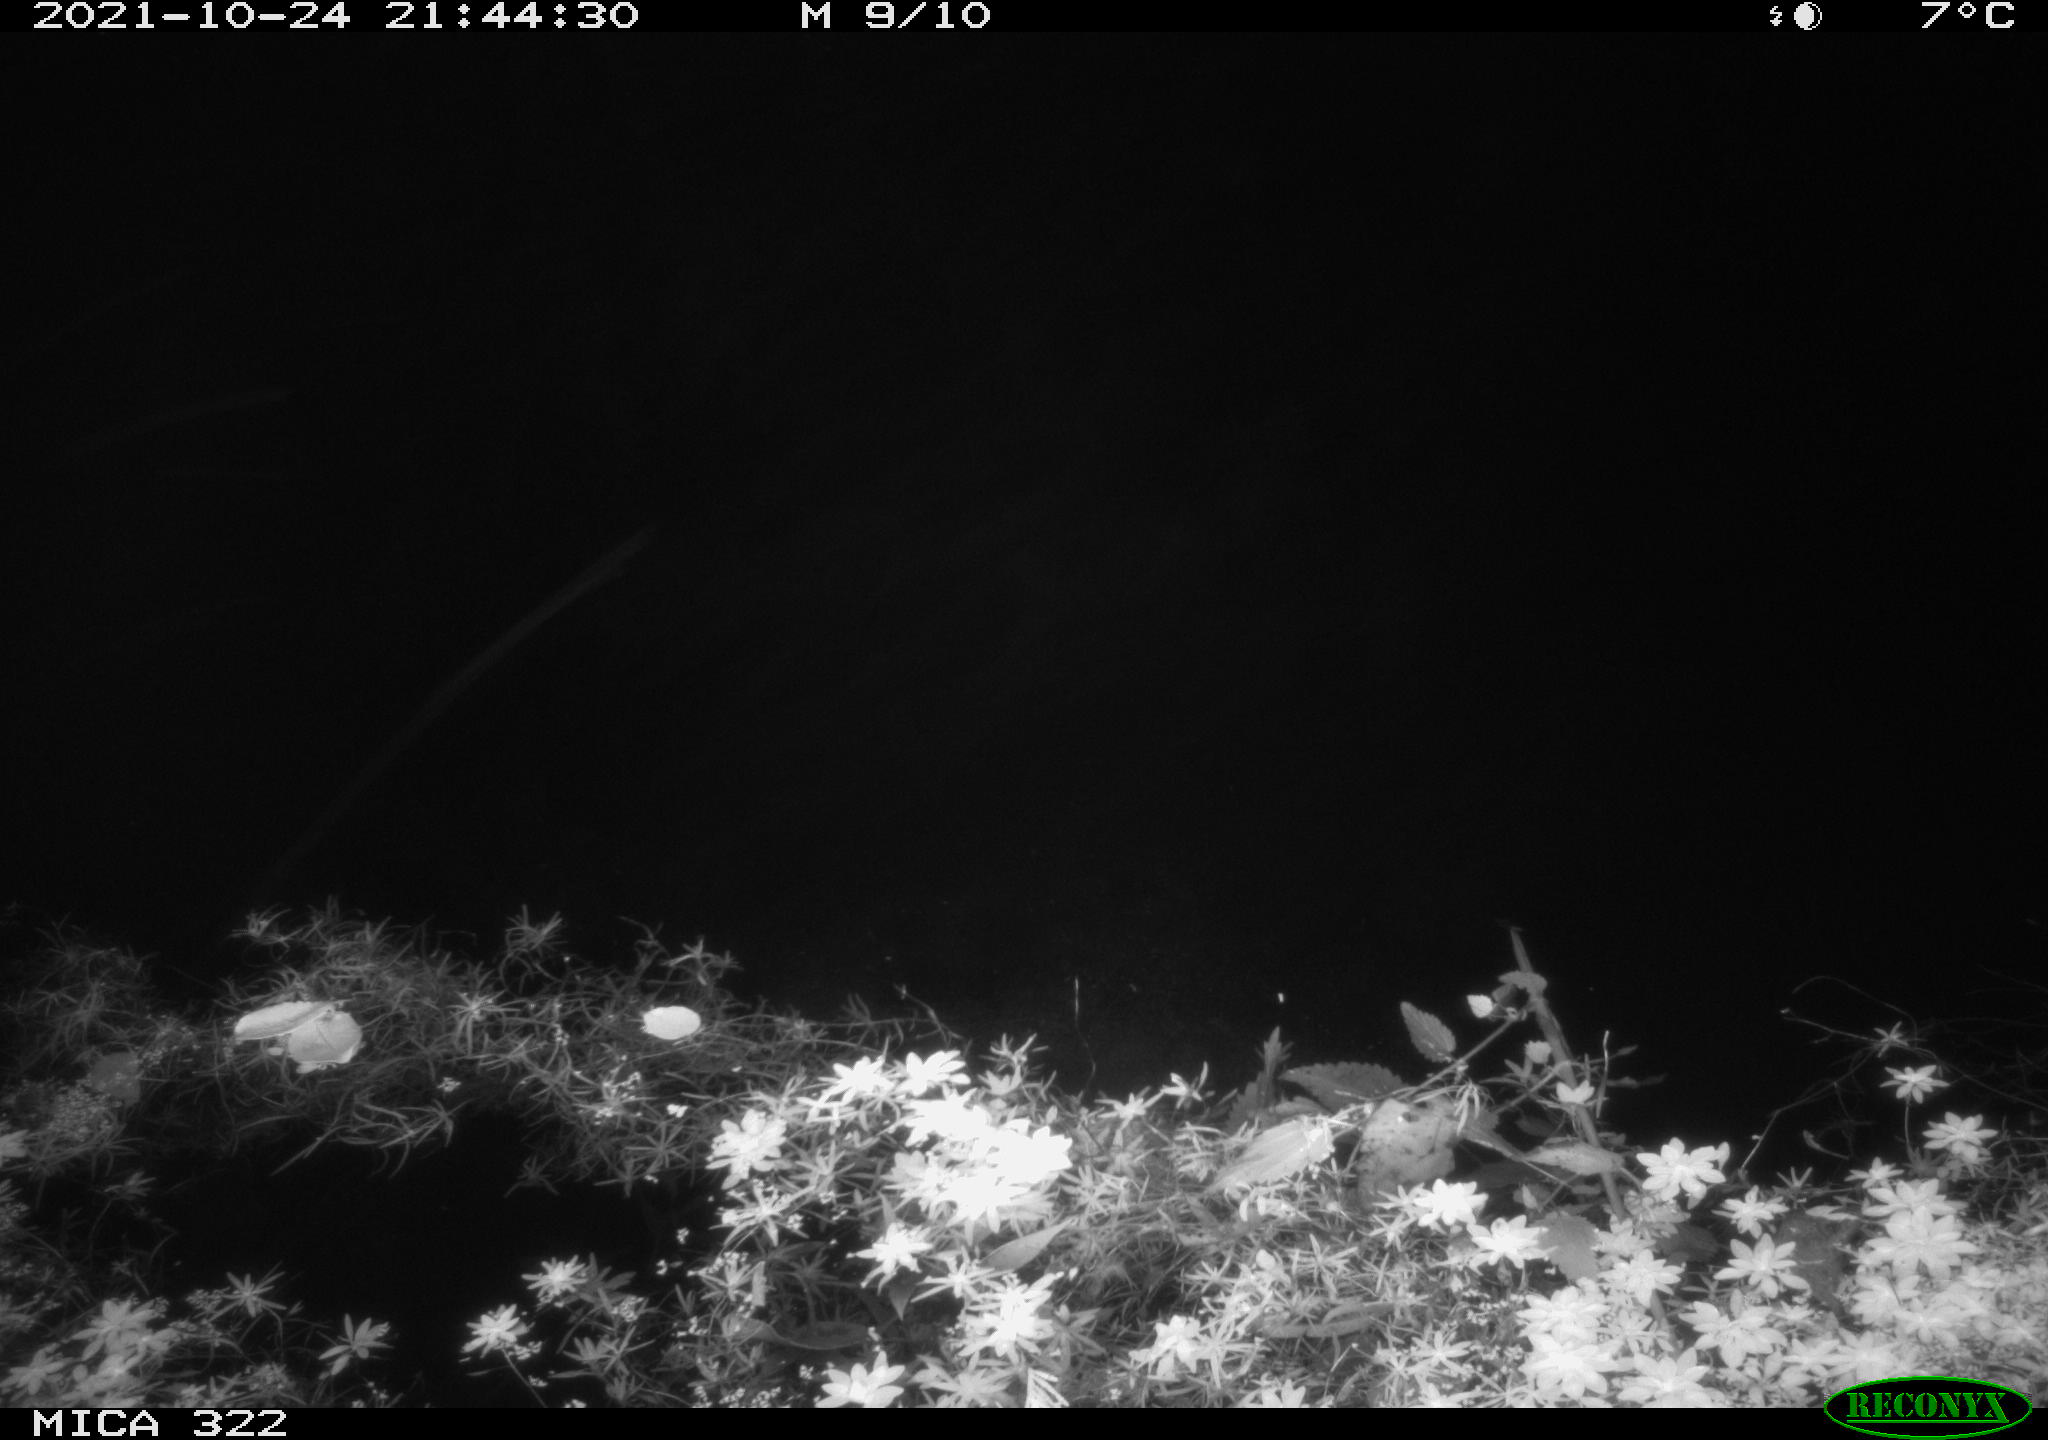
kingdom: Animalia
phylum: Chordata
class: Mammalia
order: Rodentia
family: Muridae
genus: Rattus
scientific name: Rattus norvegicus
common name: Brown rat
